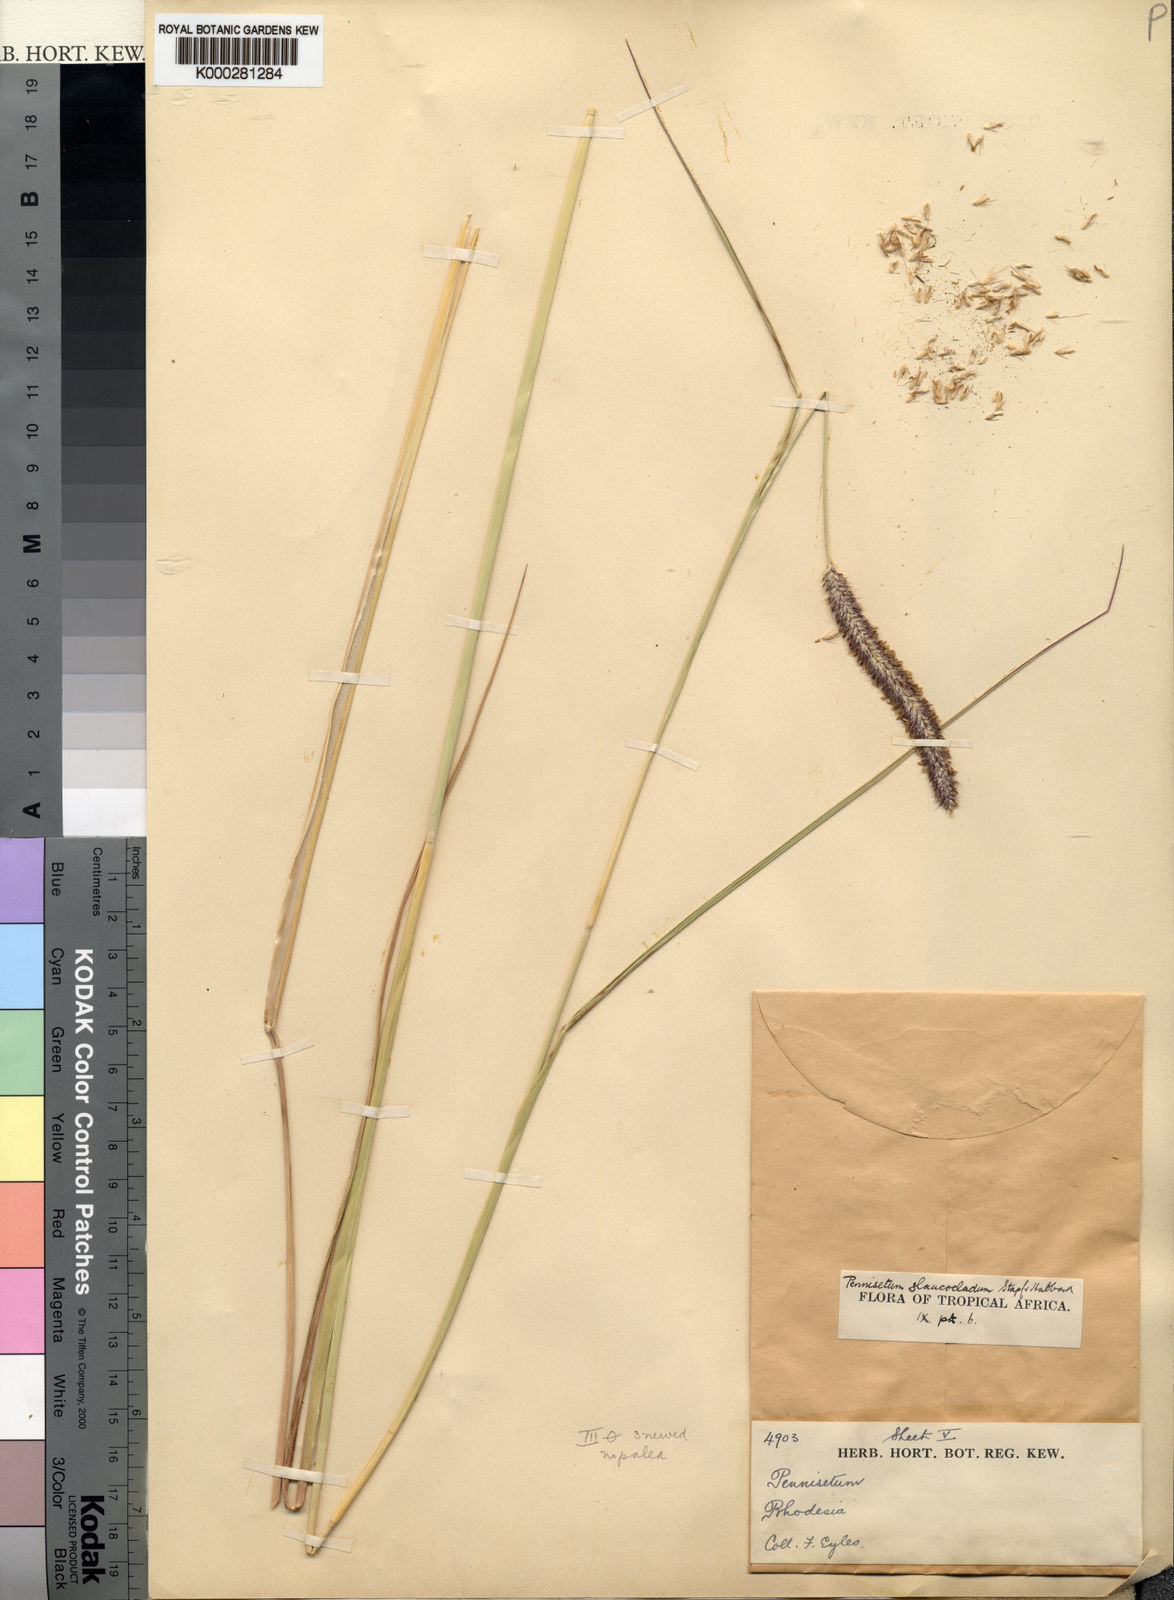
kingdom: Plantae
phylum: Tracheophyta
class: Liliopsida
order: Poales
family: Poaceae
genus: Cenchrus
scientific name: Cenchrus caudatus
